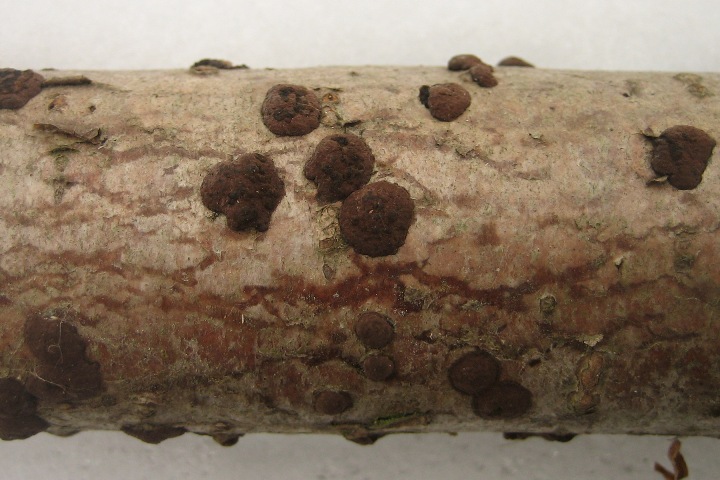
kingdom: Fungi
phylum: Ascomycota
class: Sordariomycetes
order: Xylariales
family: Hypoxylaceae
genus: Hypoxylon
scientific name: Hypoxylon fuscum
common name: kegleformet kulbær
